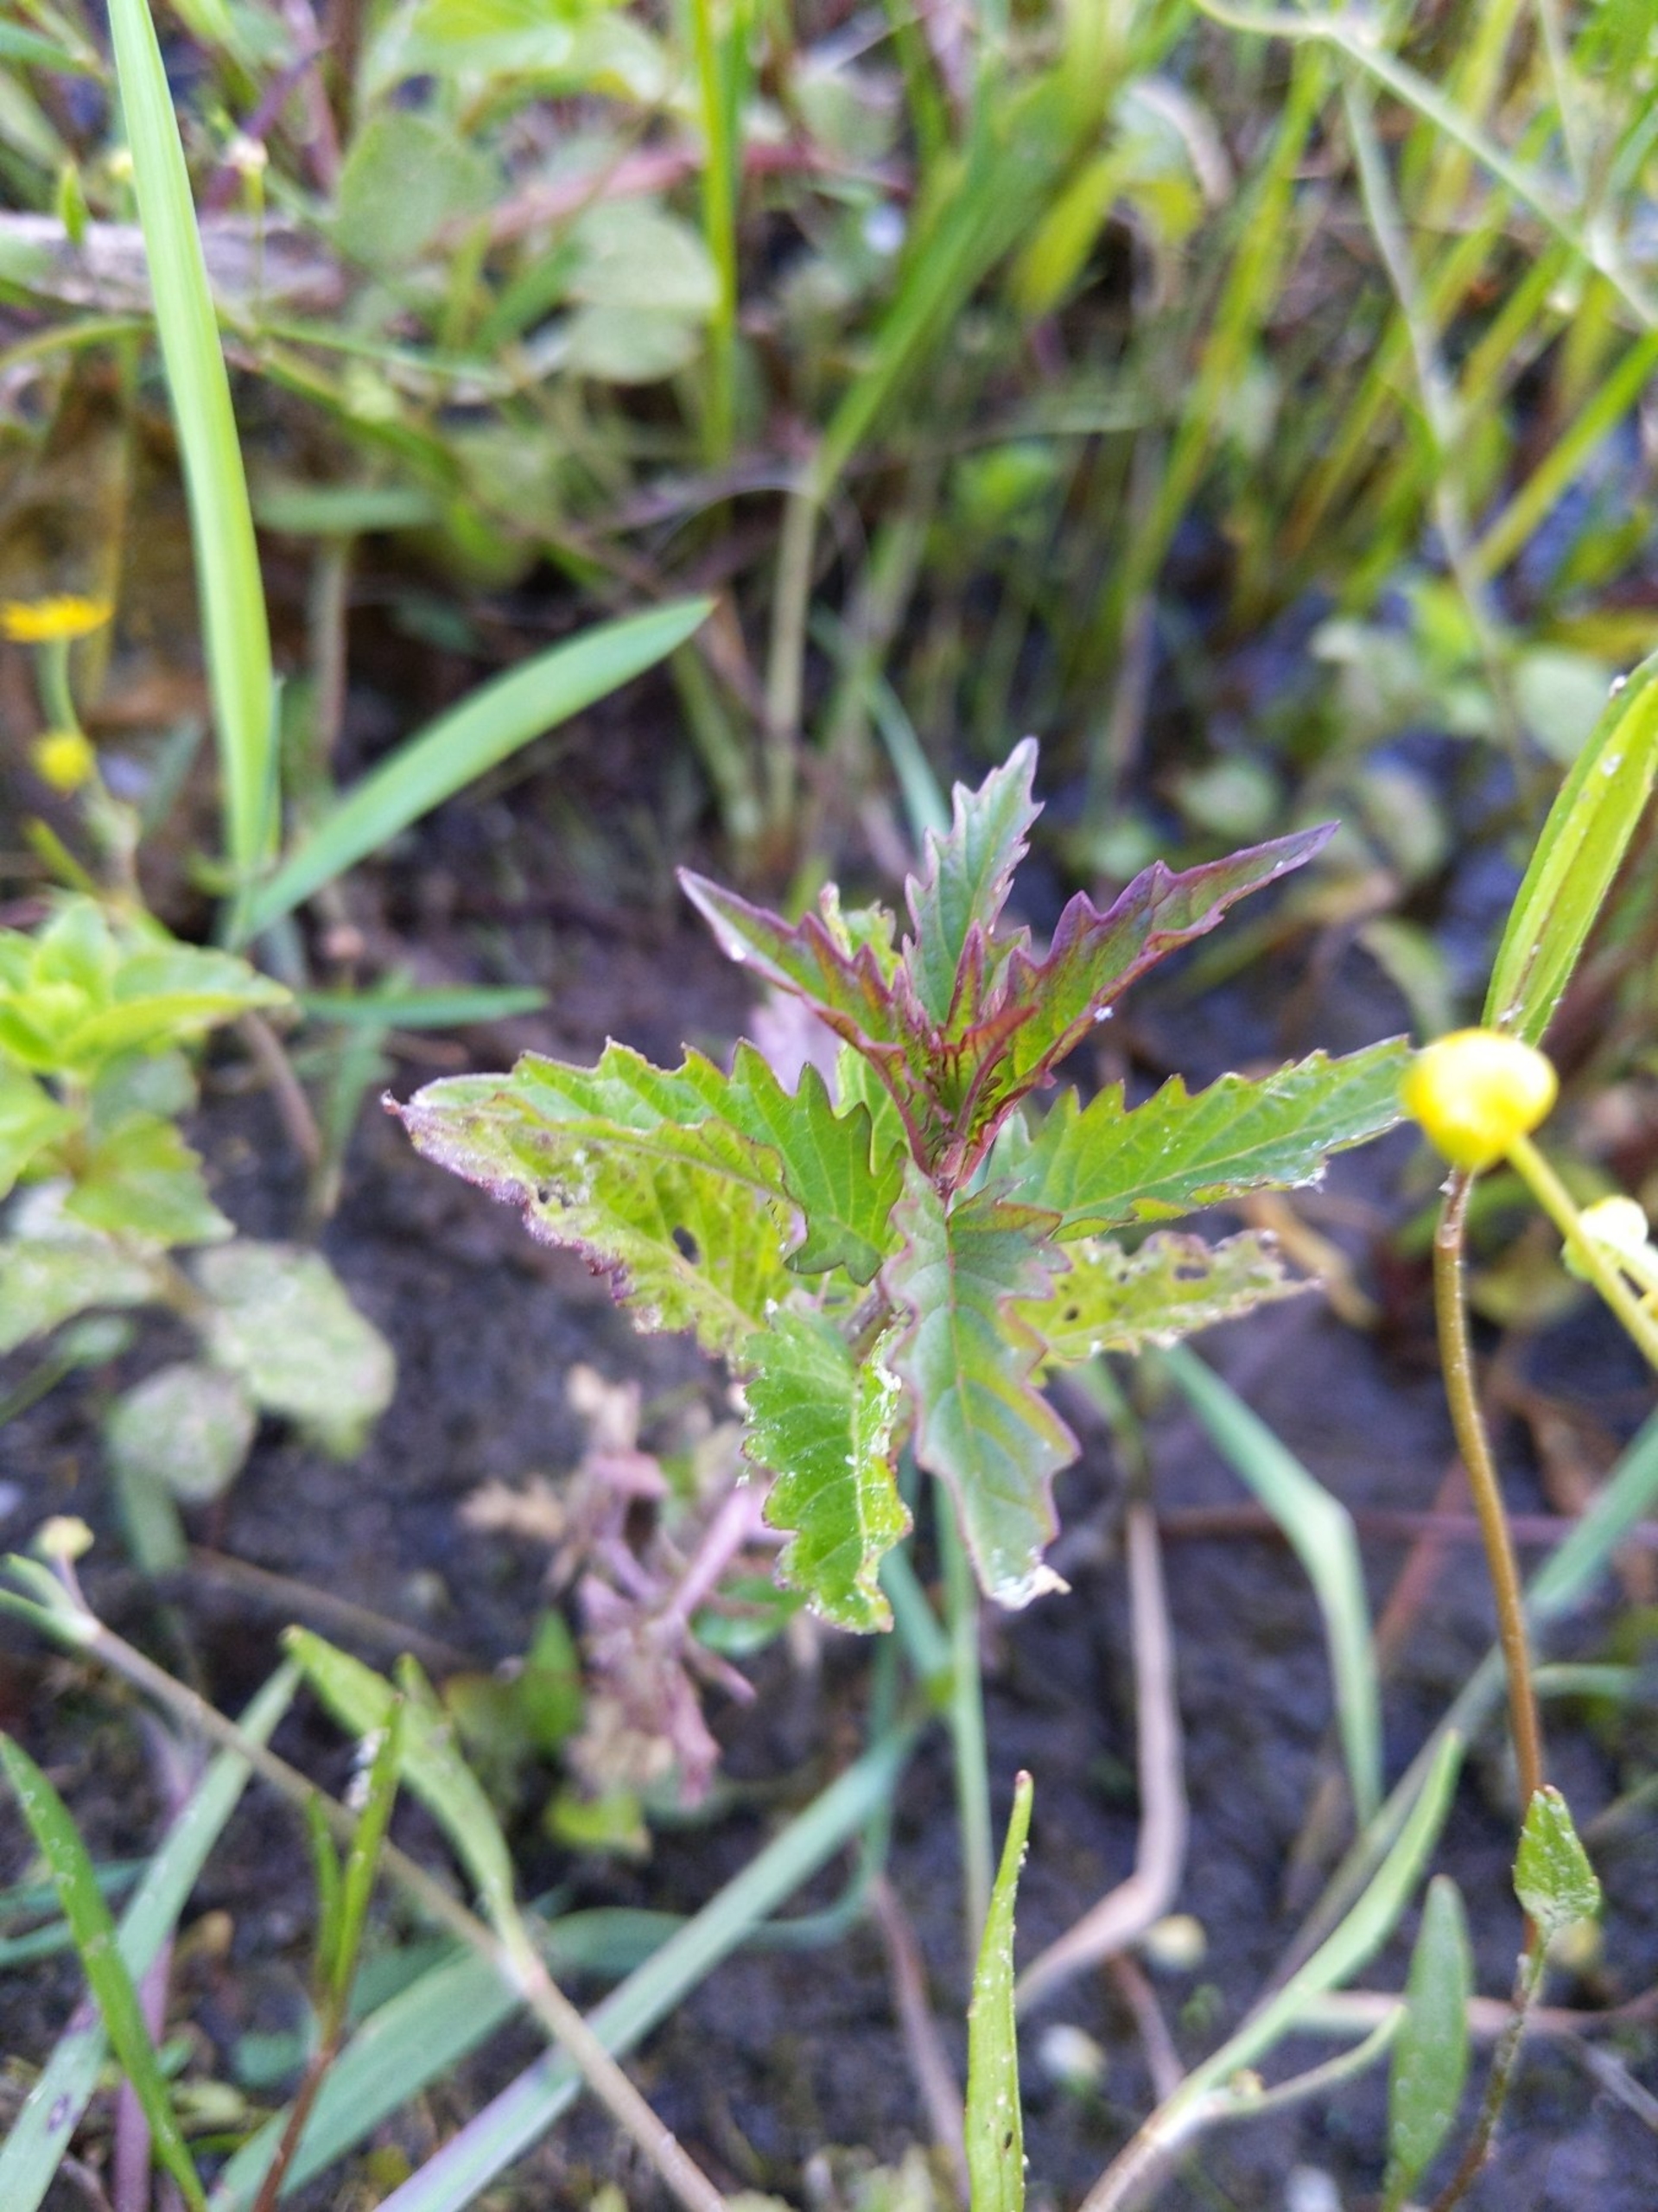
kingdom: Plantae
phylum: Tracheophyta
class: Magnoliopsida
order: Lamiales
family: Lamiaceae
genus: Lycopus
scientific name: Lycopus europaeus
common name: Sværtevæld
